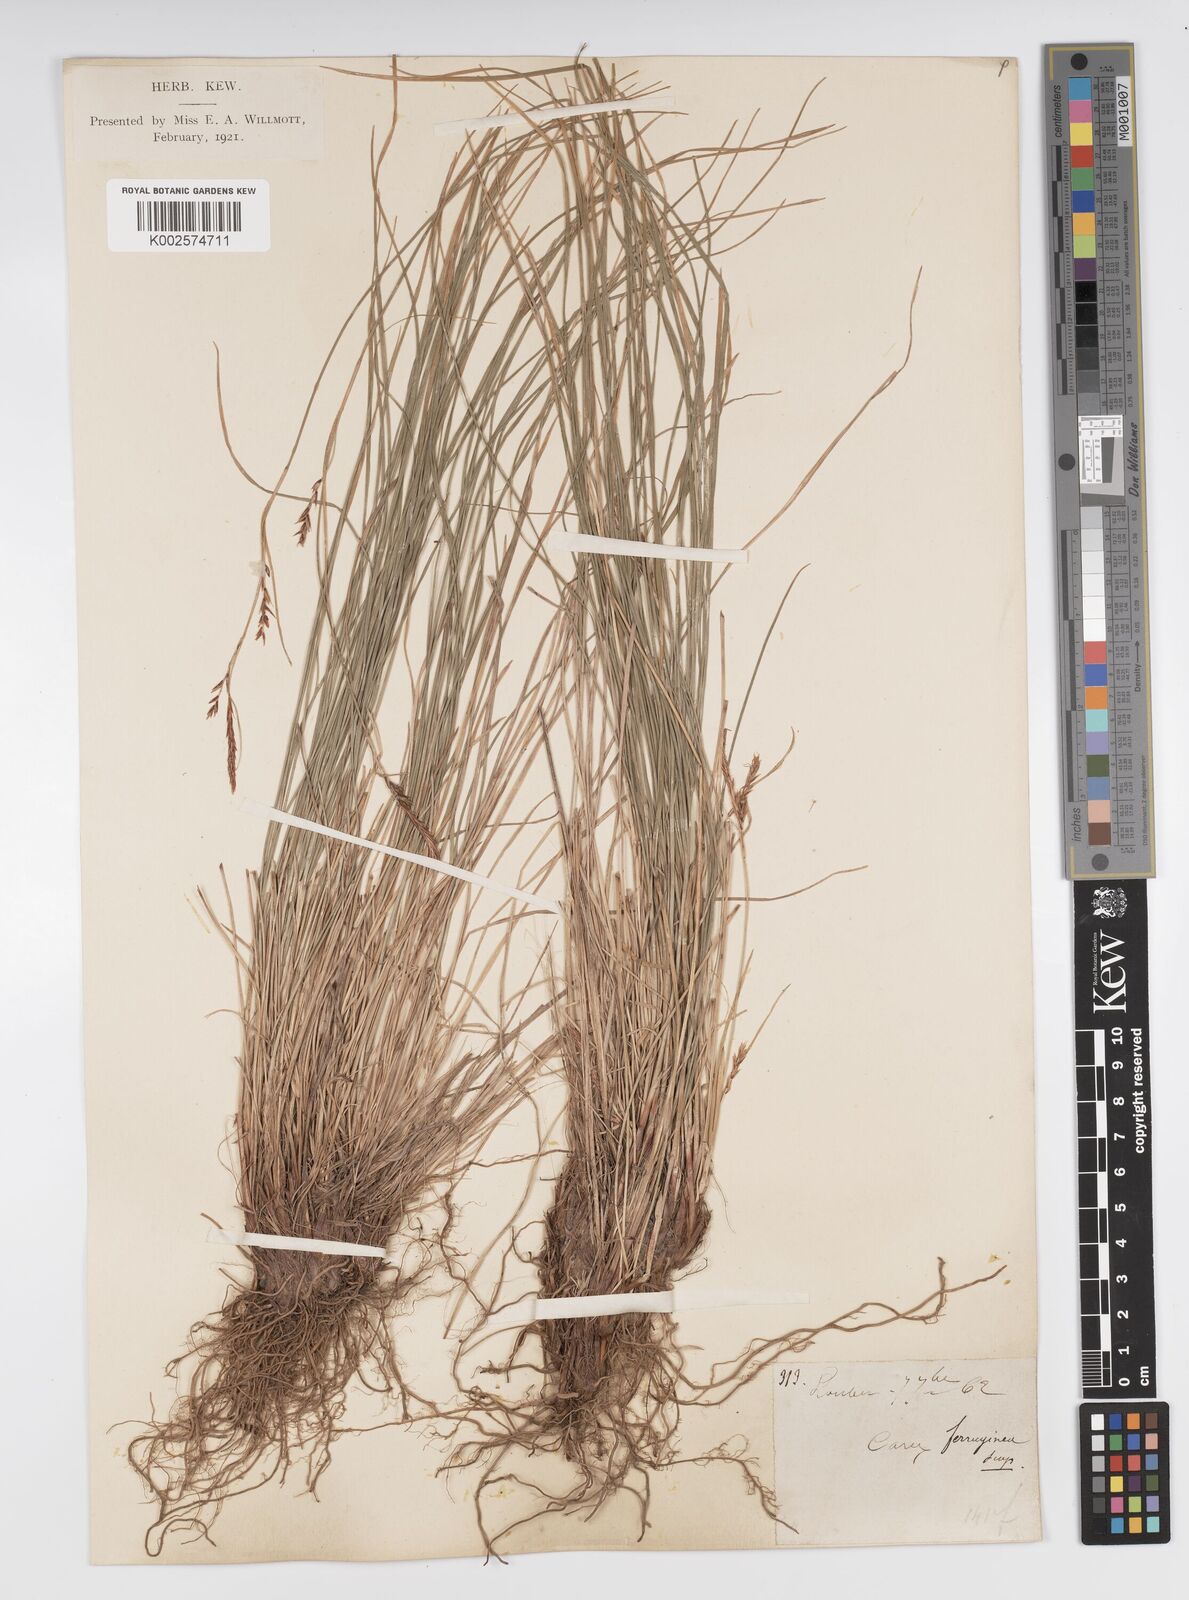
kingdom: Plantae
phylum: Tracheophyta
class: Liliopsida
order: Poales
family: Cyperaceae
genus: Carex
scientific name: Carex ferruginea
